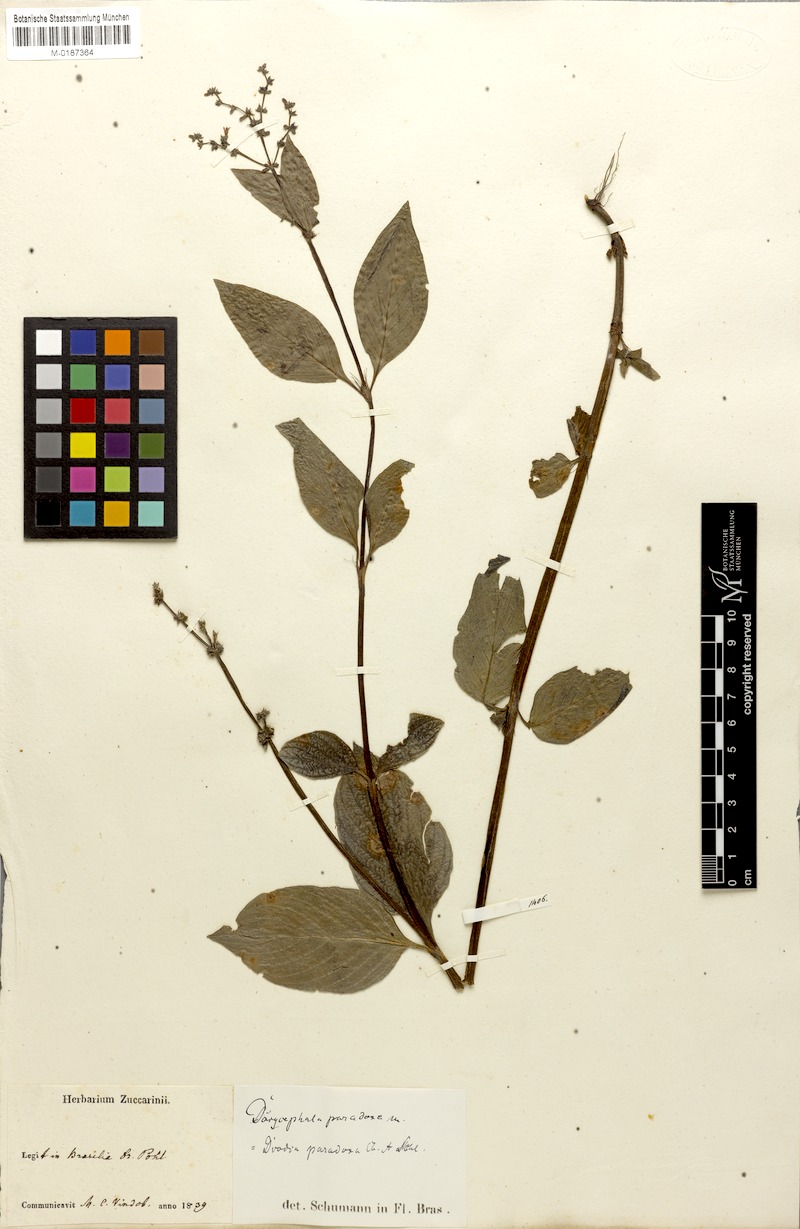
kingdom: Plantae
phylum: Tracheophyta
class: Magnoliopsida
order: Gentianales
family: Rubiaceae
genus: Galianthe
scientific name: Galianthe hispidula
